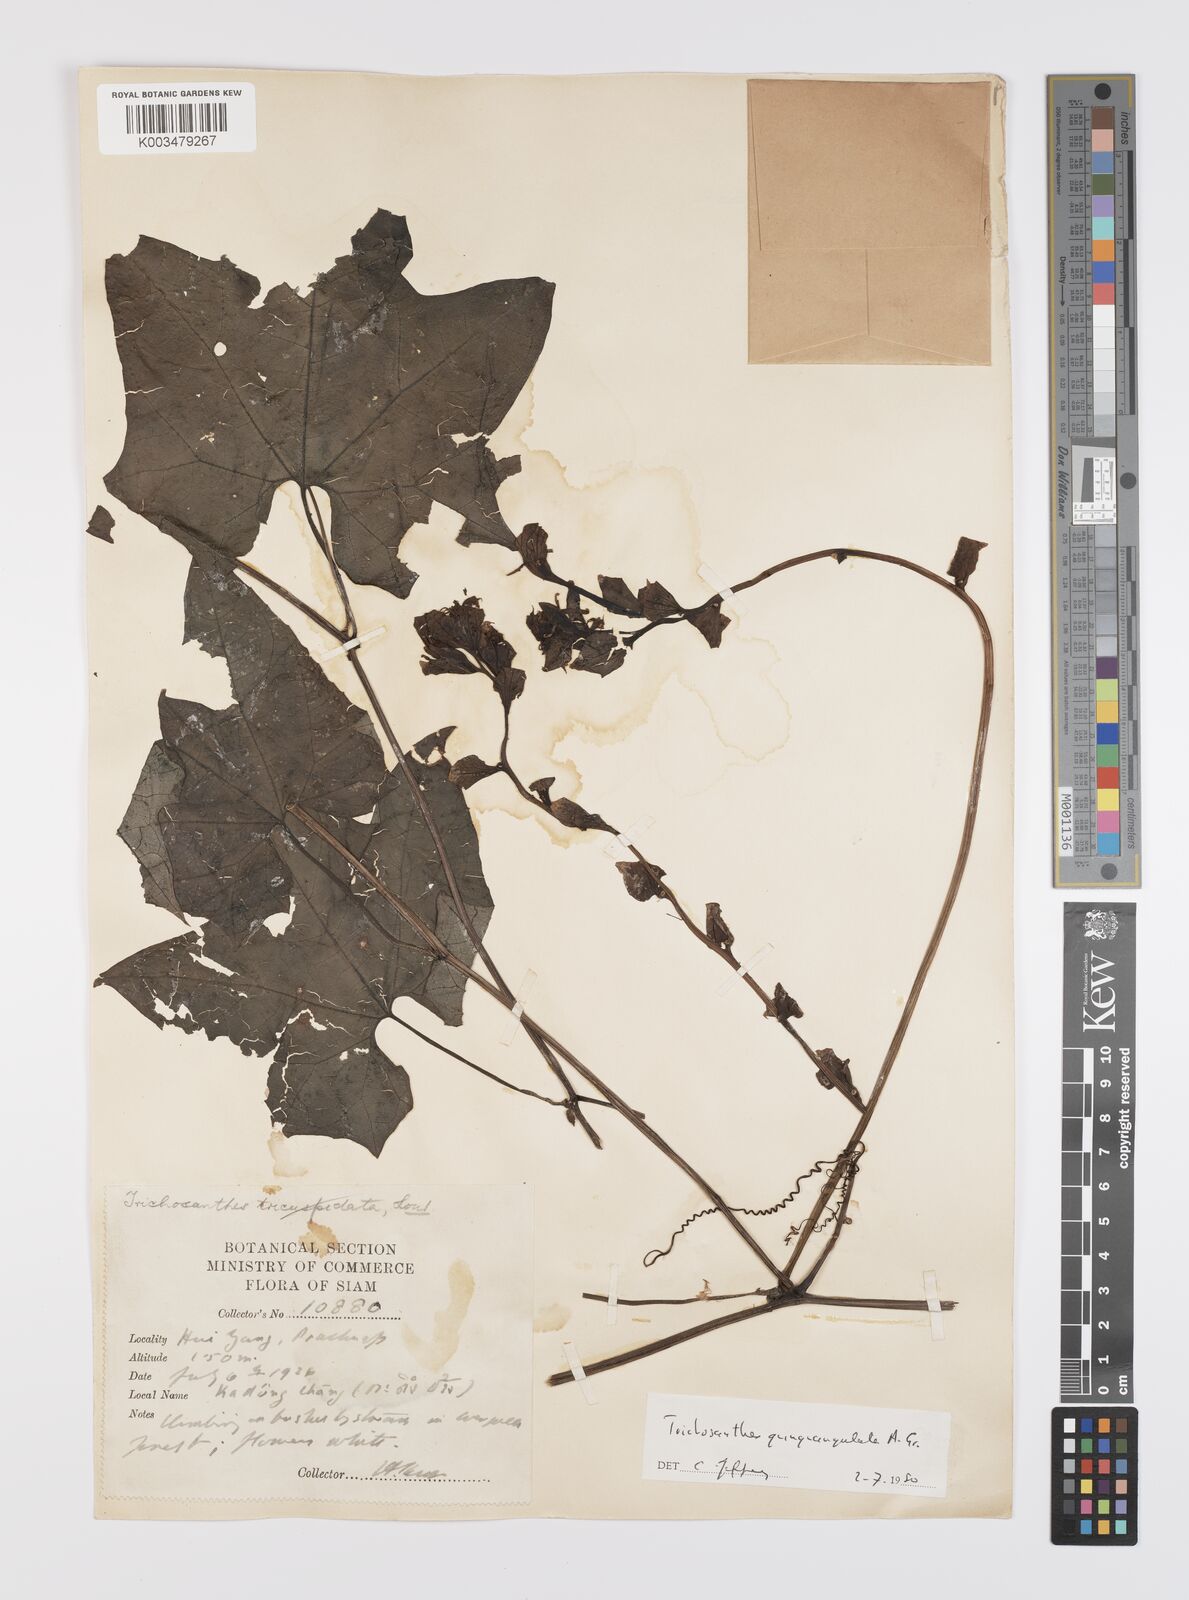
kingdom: Plantae
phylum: Tracheophyta
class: Magnoliopsida
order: Cucurbitales
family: Cucurbitaceae
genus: Trichosanthes
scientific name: Trichosanthes quinquangulata
